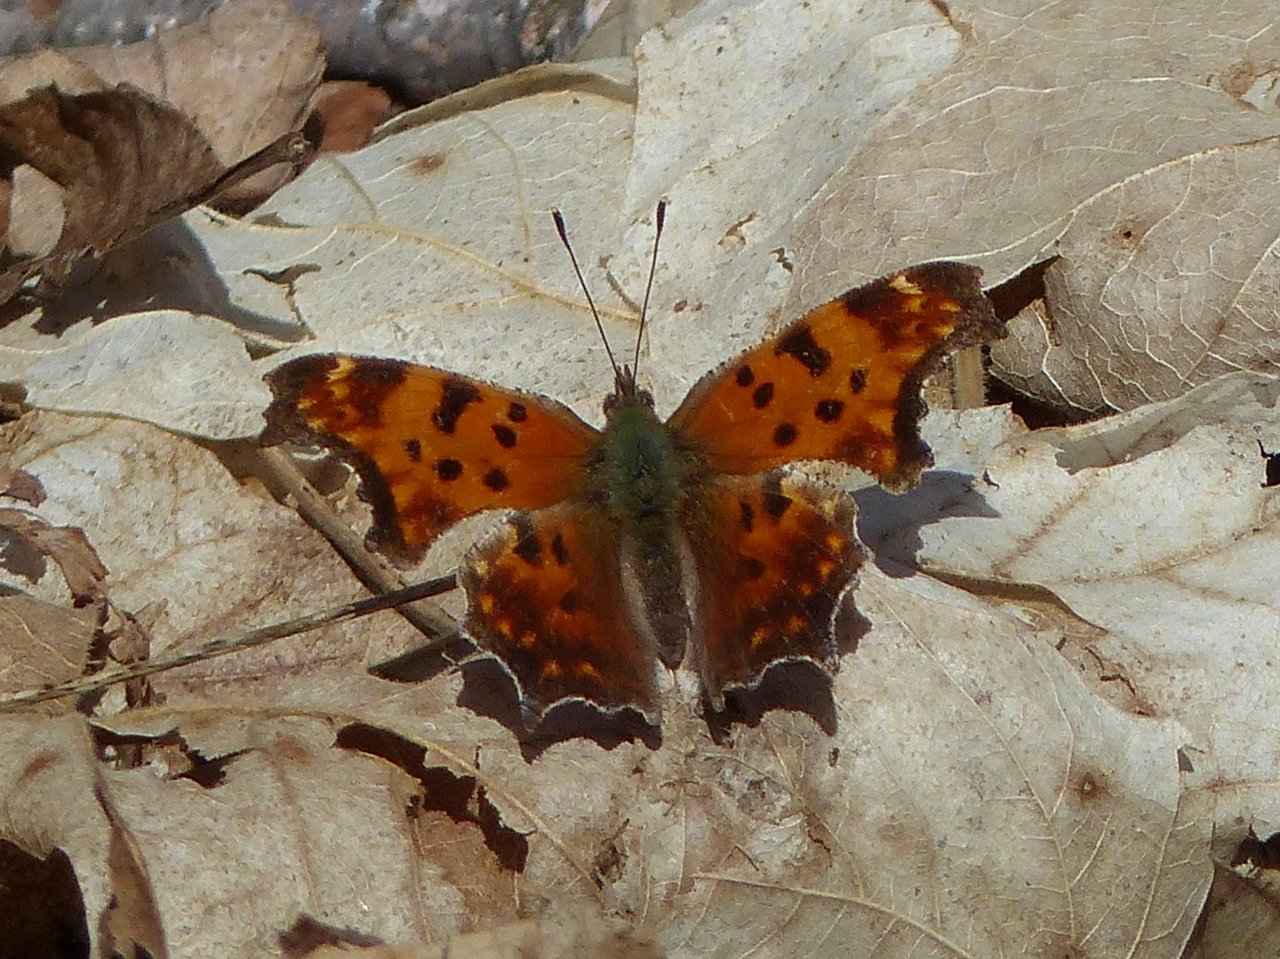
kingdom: Animalia
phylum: Arthropoda
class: Insecta
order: Lepidoptera
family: Nymphalidae
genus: Polygonia
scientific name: Polygonia comma
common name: Eastern Comma
